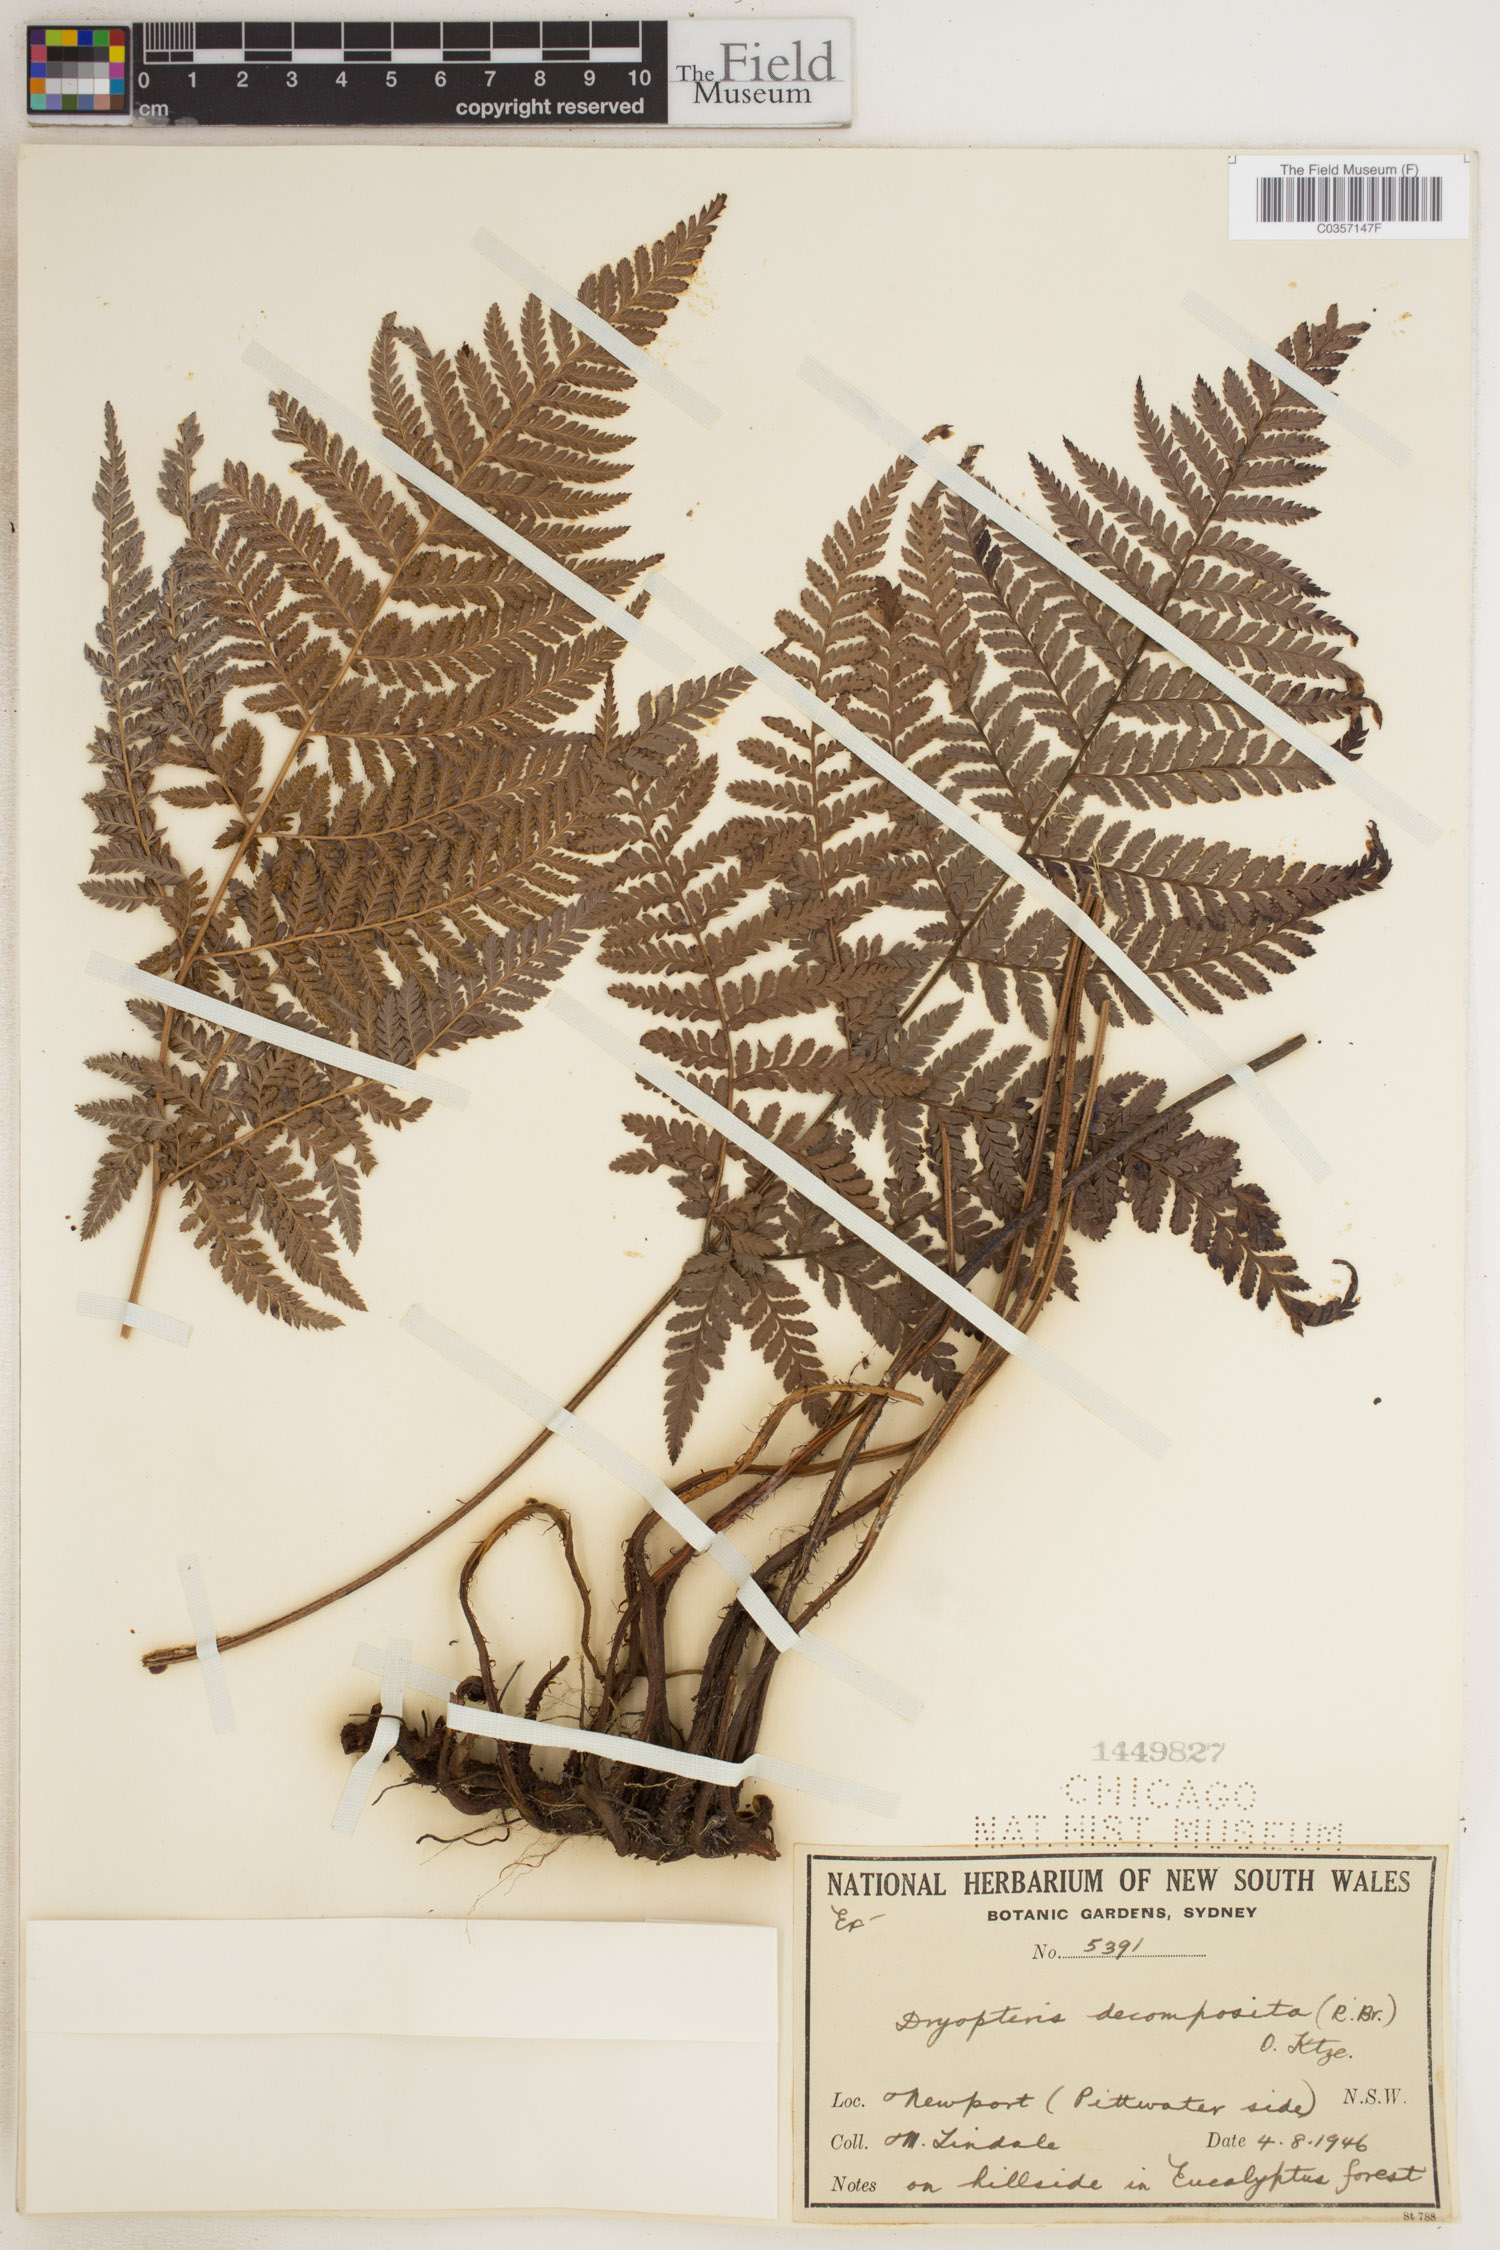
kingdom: Plantae
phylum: Tracheophyta
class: Polypodiopsida
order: Polypodiales
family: Dryopteridaceae
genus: Lastreopsis
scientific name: Lastreopsis decomposita
